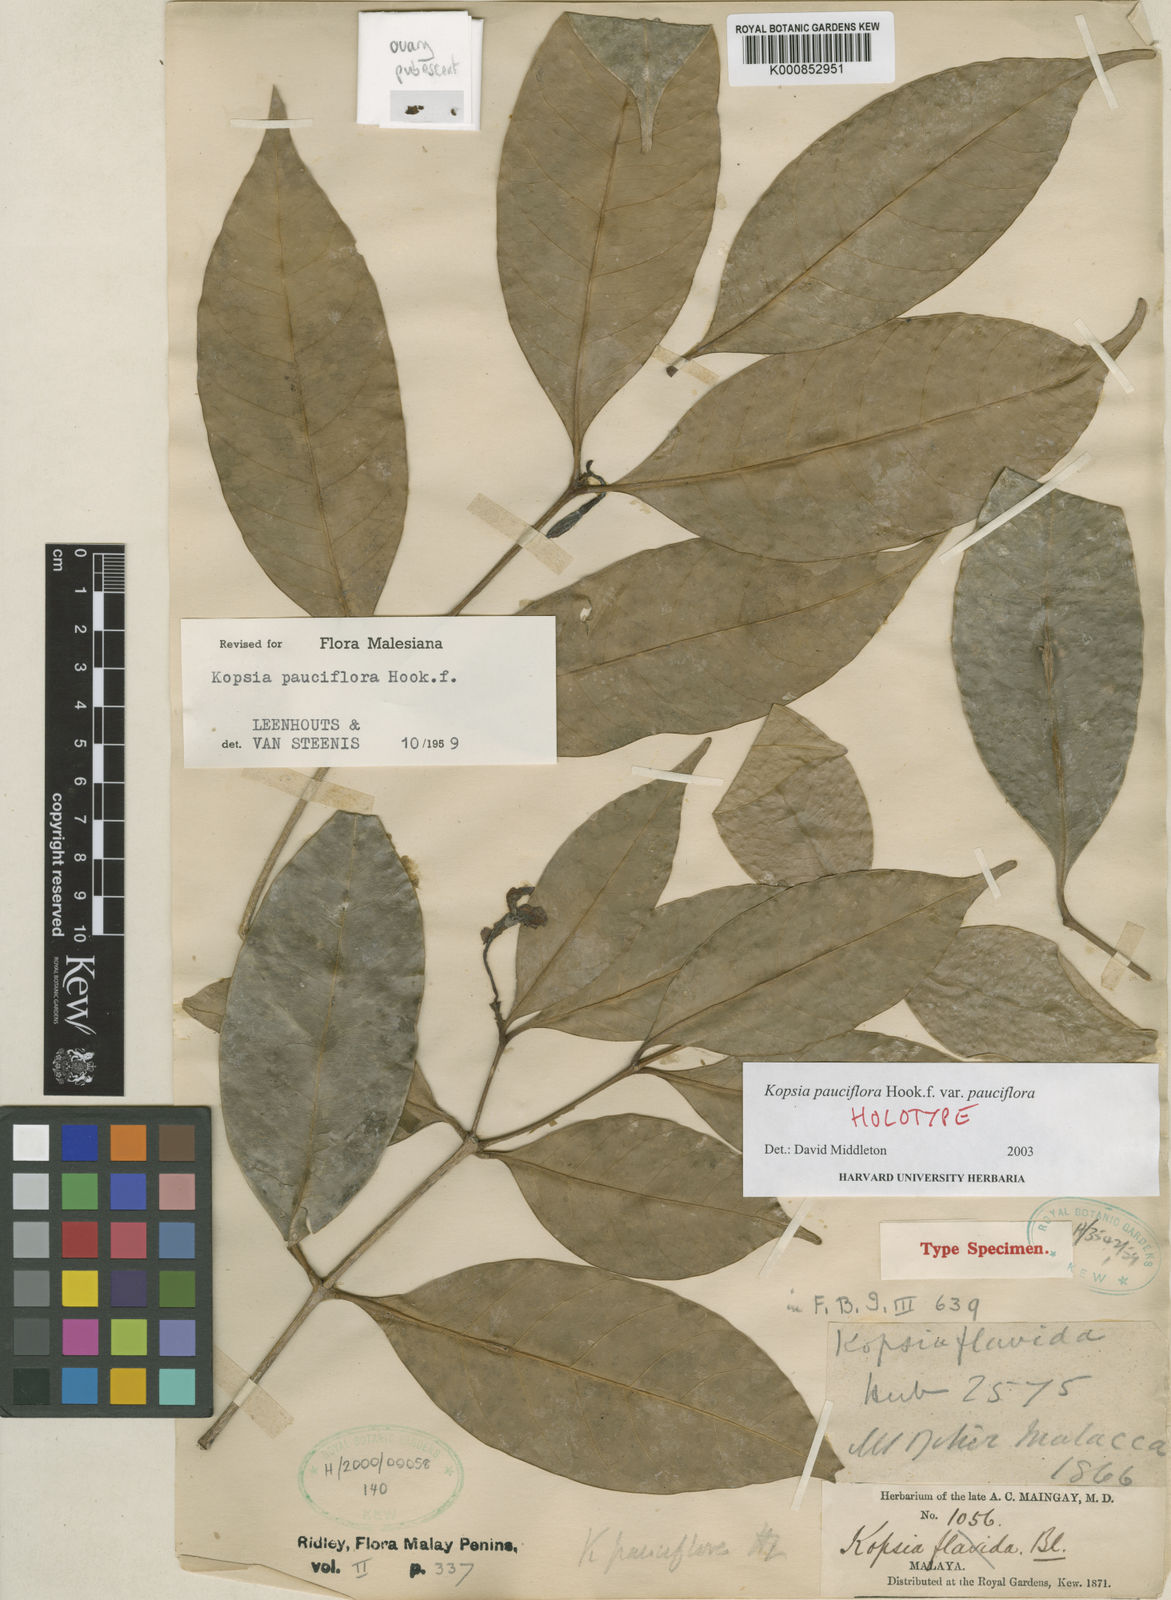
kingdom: Plantae
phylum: Tracheophyta
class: Magnoliopsida
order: Gentianales
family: Apocynaceae
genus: Kopsia
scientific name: Kopsia pauciflora
